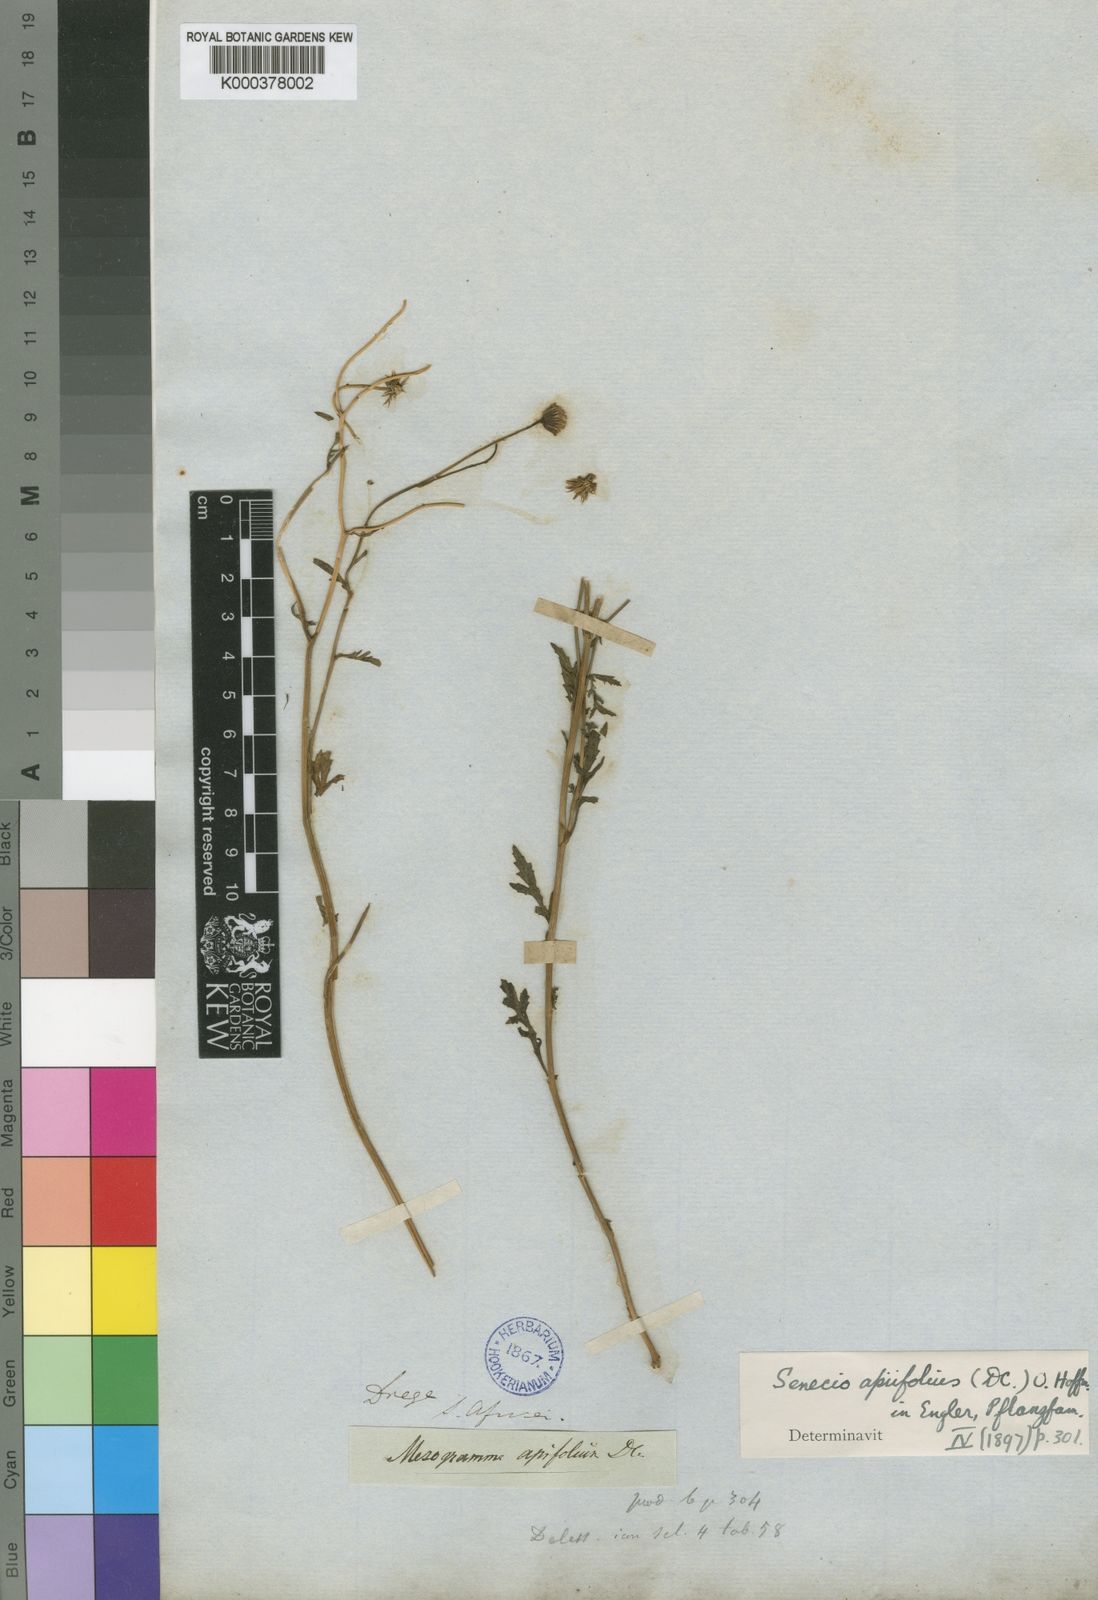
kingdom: Plantae
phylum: Tracheophyta
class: Magnoliopsida
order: Asterales
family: Asteraceae
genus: Senecio
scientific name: Senecio
